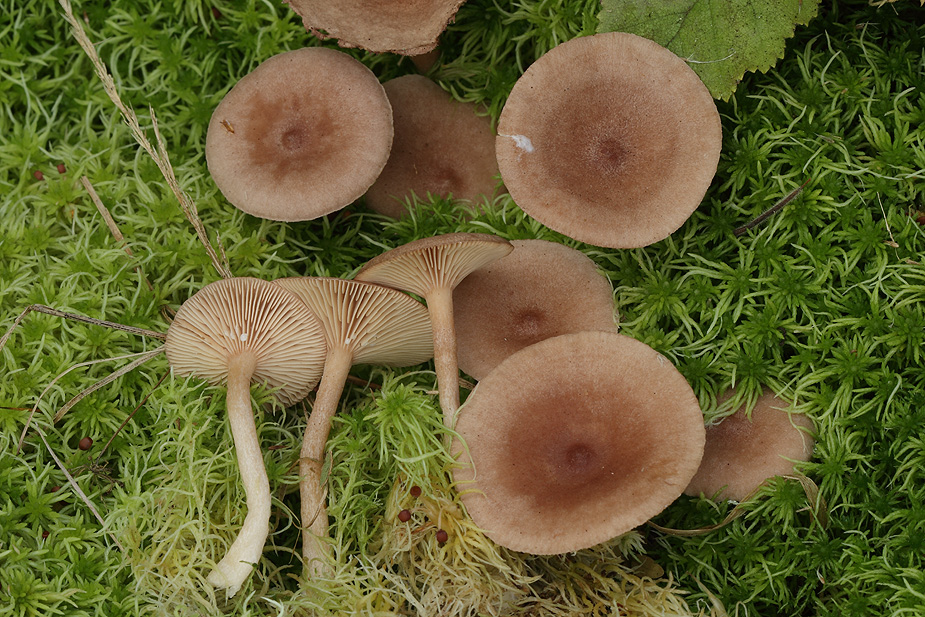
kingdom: Fungi
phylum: Basidiomycota
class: Agaricomycetes
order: Russulales
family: Russulaceae
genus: Lactarius
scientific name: Lactarius helvus
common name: mose-mælkehat
